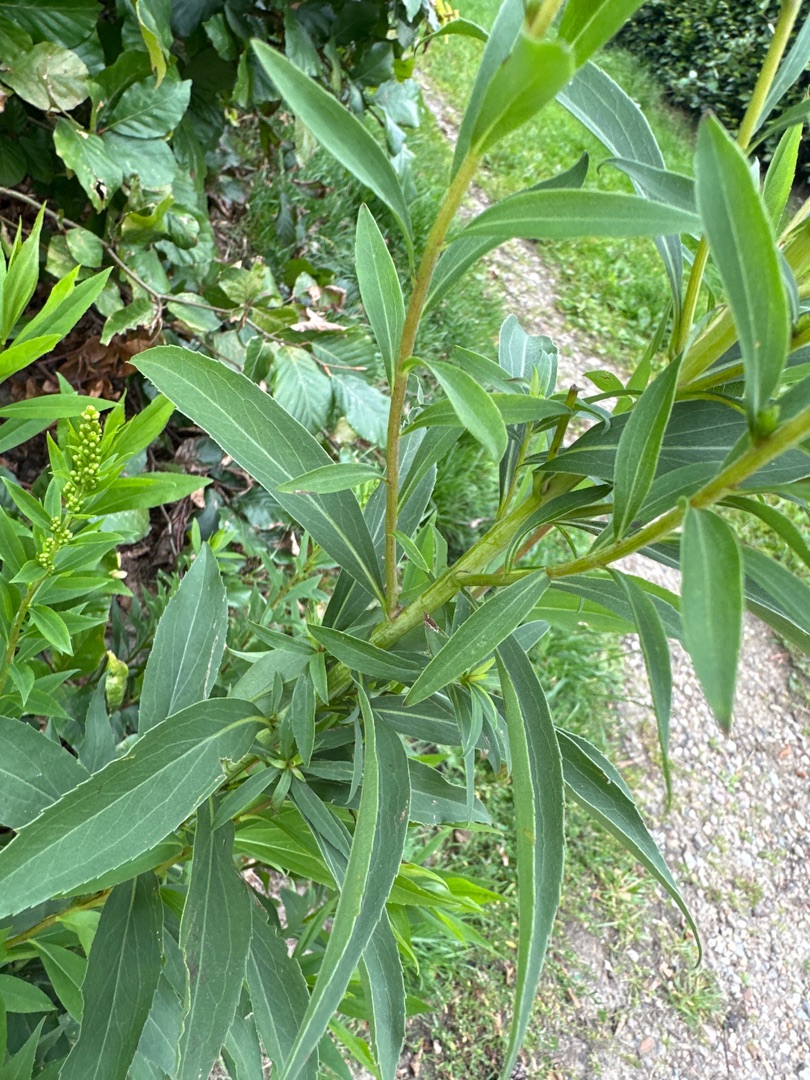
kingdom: Plantae
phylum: Tracheophyta
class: Magnoliopsida
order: Asterales
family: Asteraceae
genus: Solidago
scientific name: Solidago canadensis
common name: Kanadisk gyldenris
